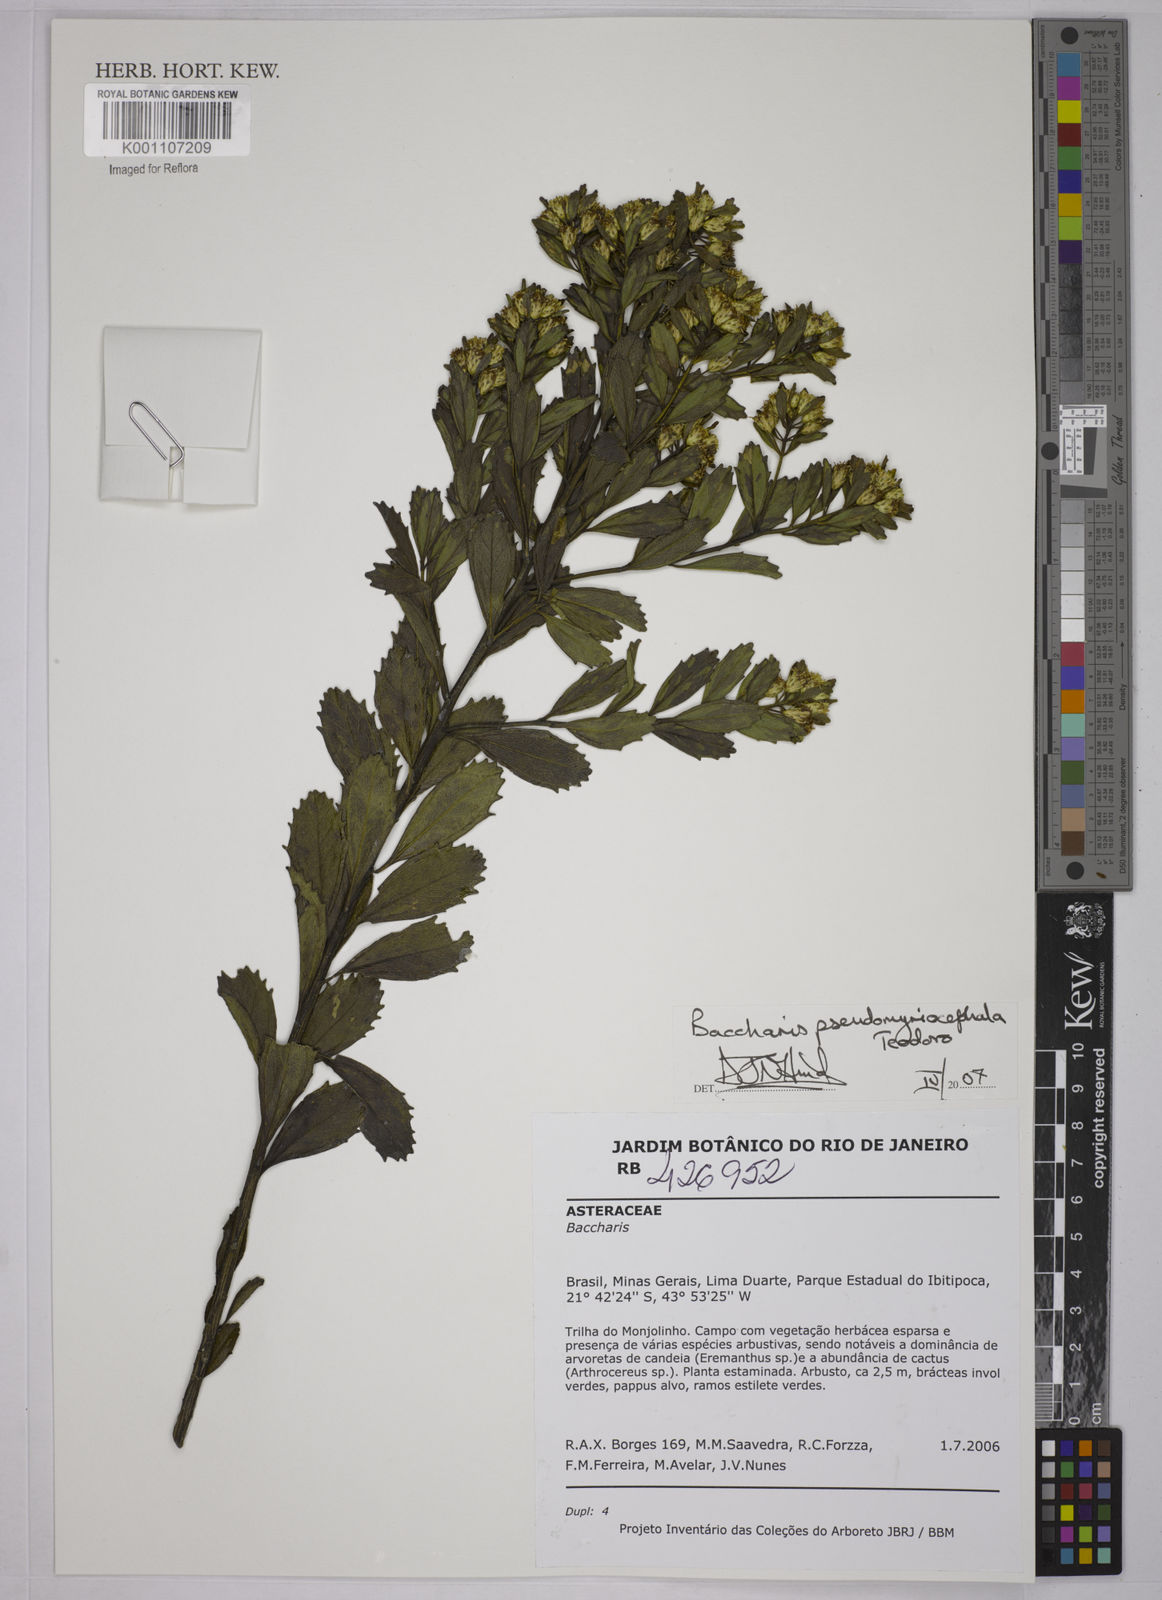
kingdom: Plantae
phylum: Tracheophyta
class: Magnoliopsida
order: Asterales
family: Asteraceae
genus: Baccharis
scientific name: Baccharis pseudomyriocephala
